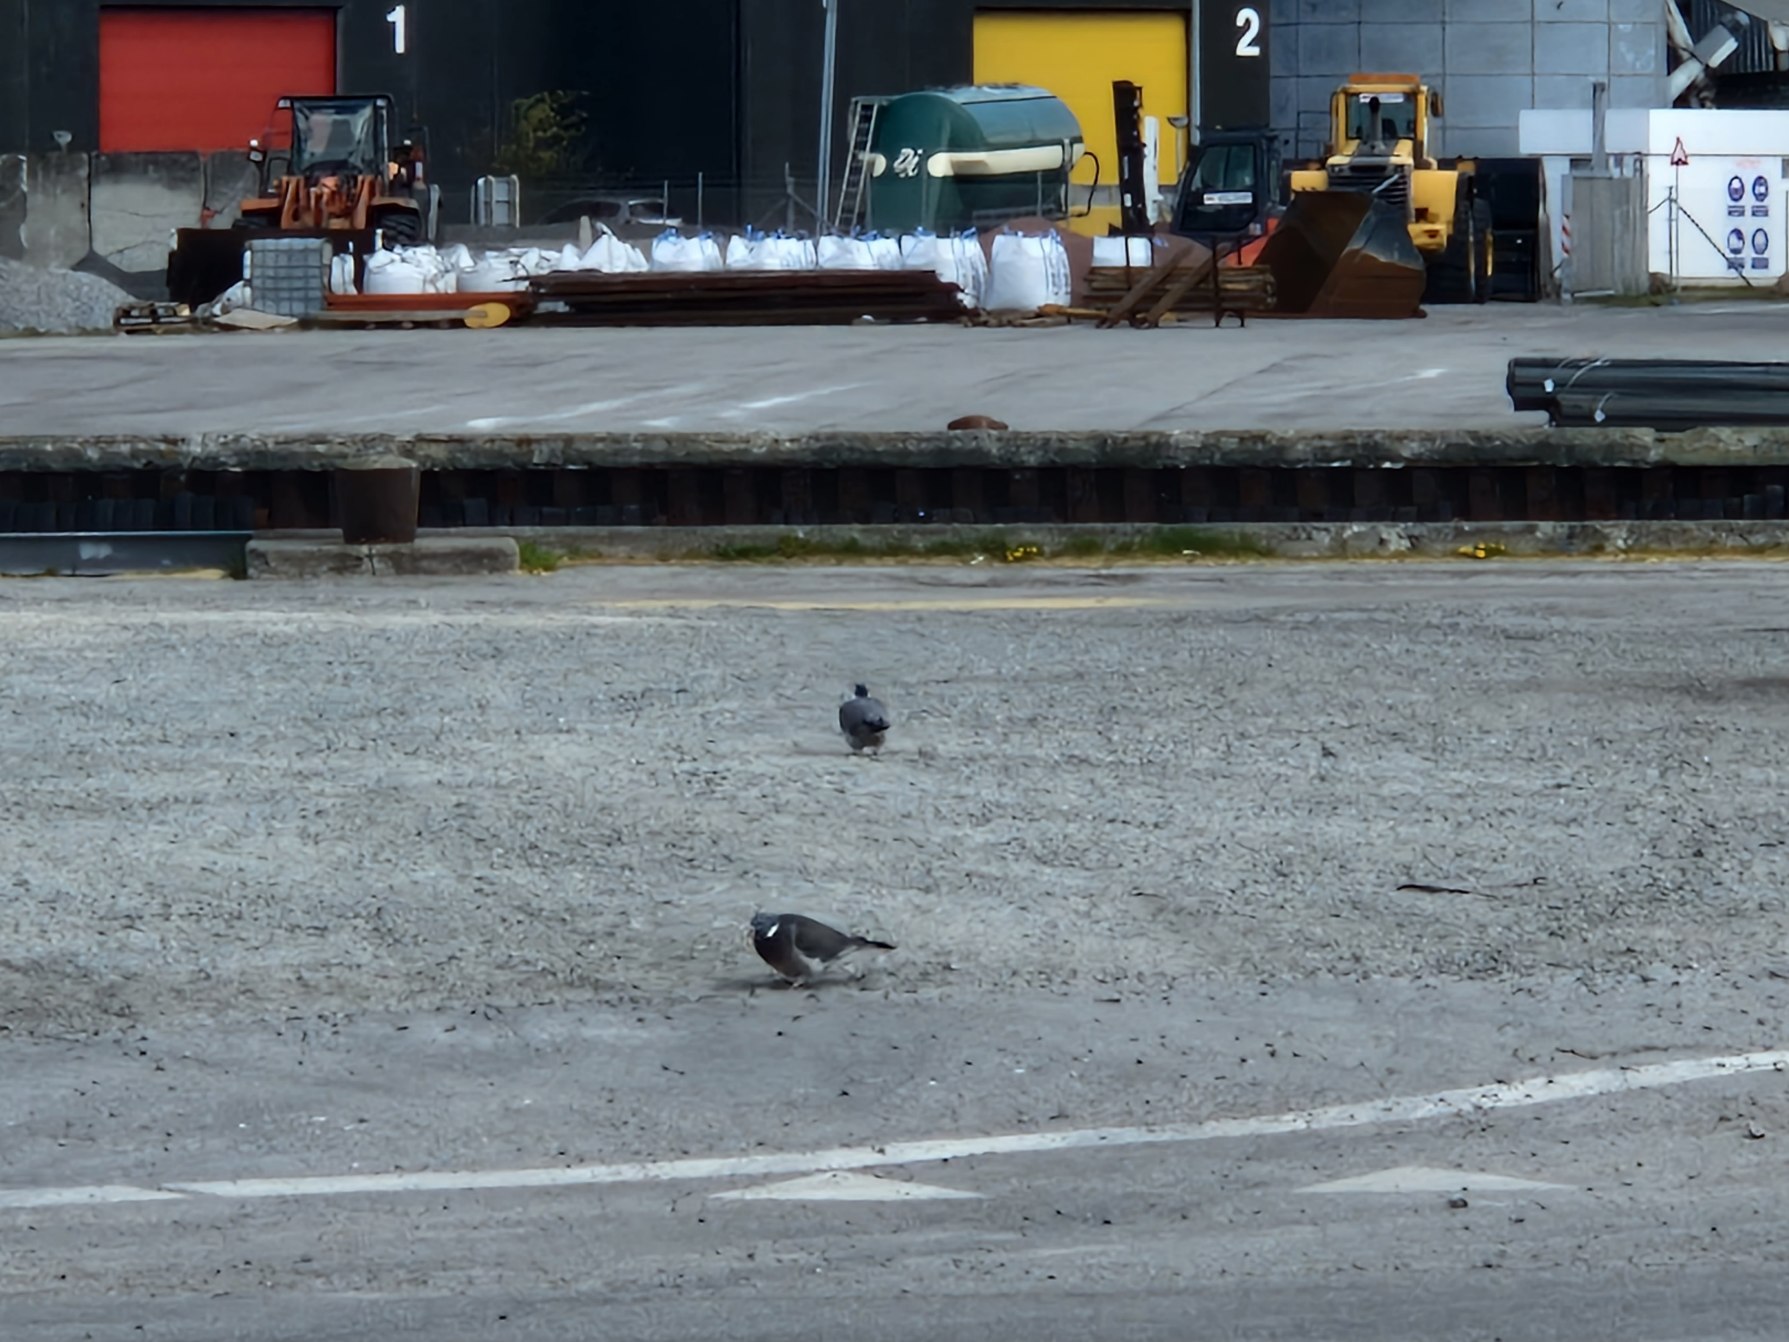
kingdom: Animalia
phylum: Chordata
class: Aves
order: Columbiformes
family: Columbidae
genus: Columba
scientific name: Columba palumbus
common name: Ringdue
